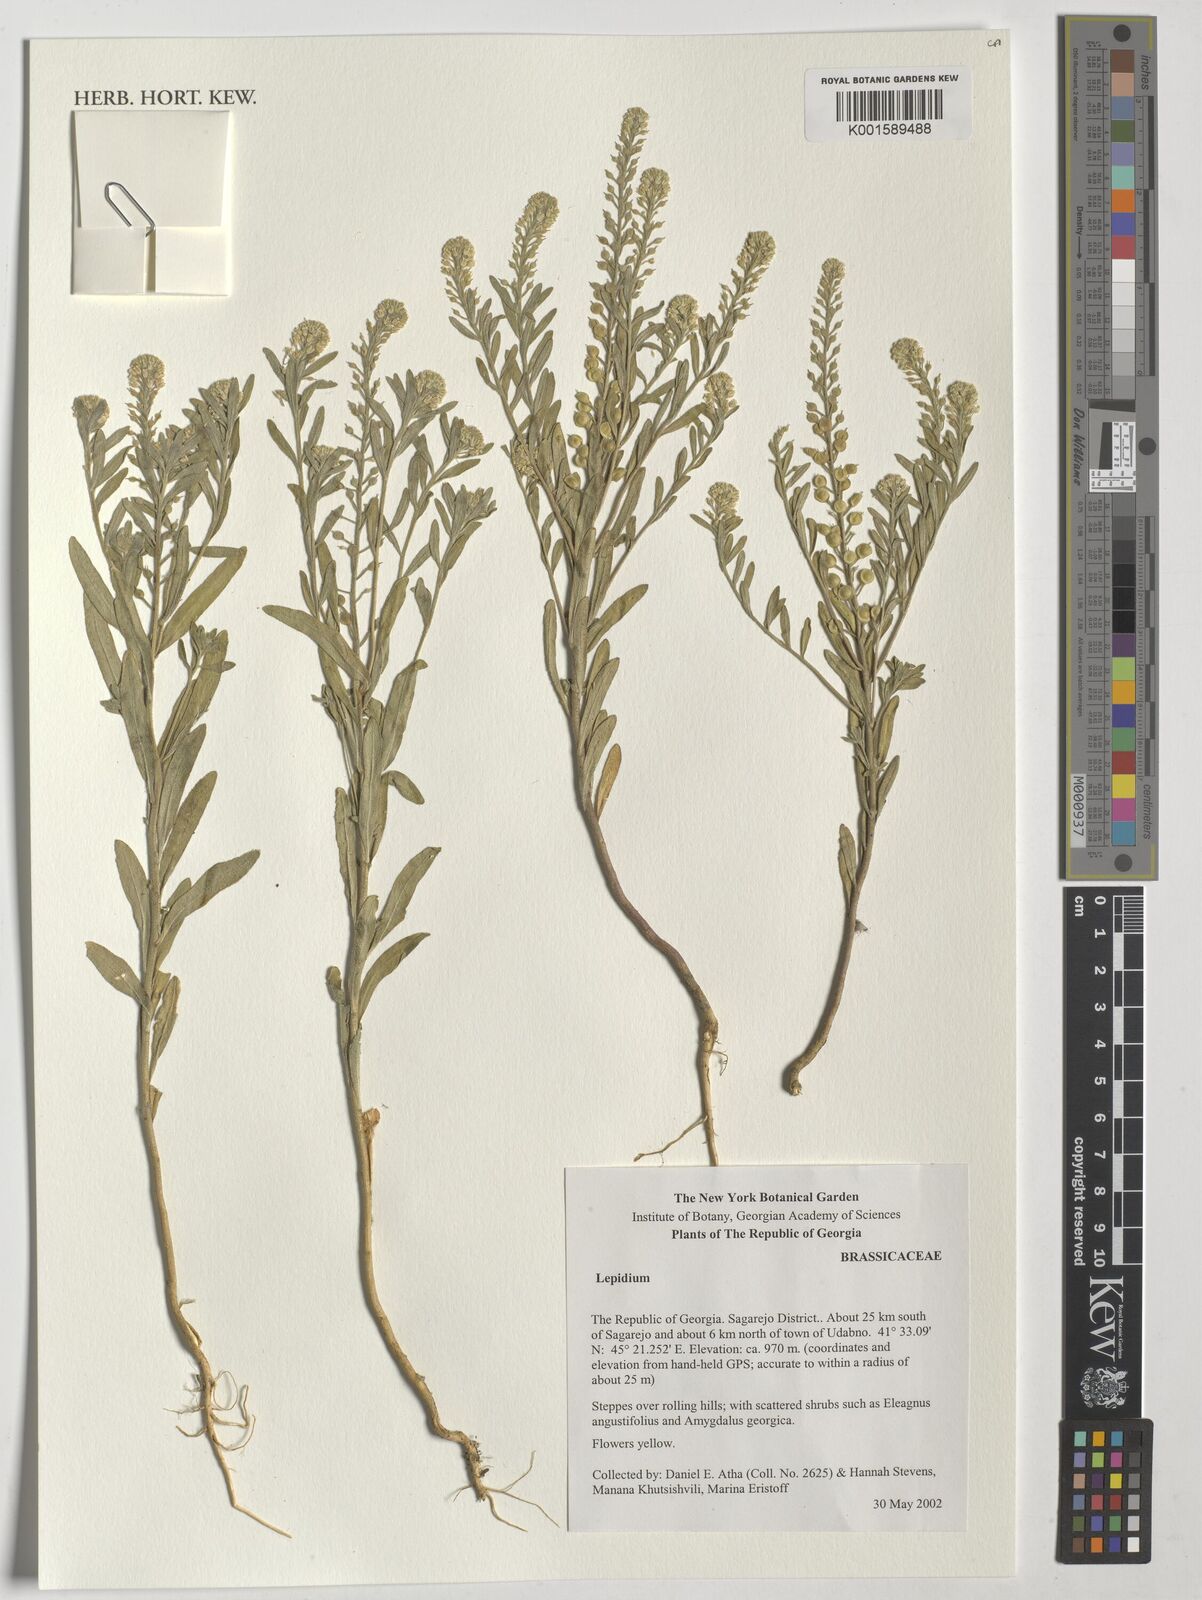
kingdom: Plantae
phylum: Tracheophyta
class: Magnoliopsida
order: Brassicales
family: Brassicaceae
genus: Lepidium
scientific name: Lepidium
